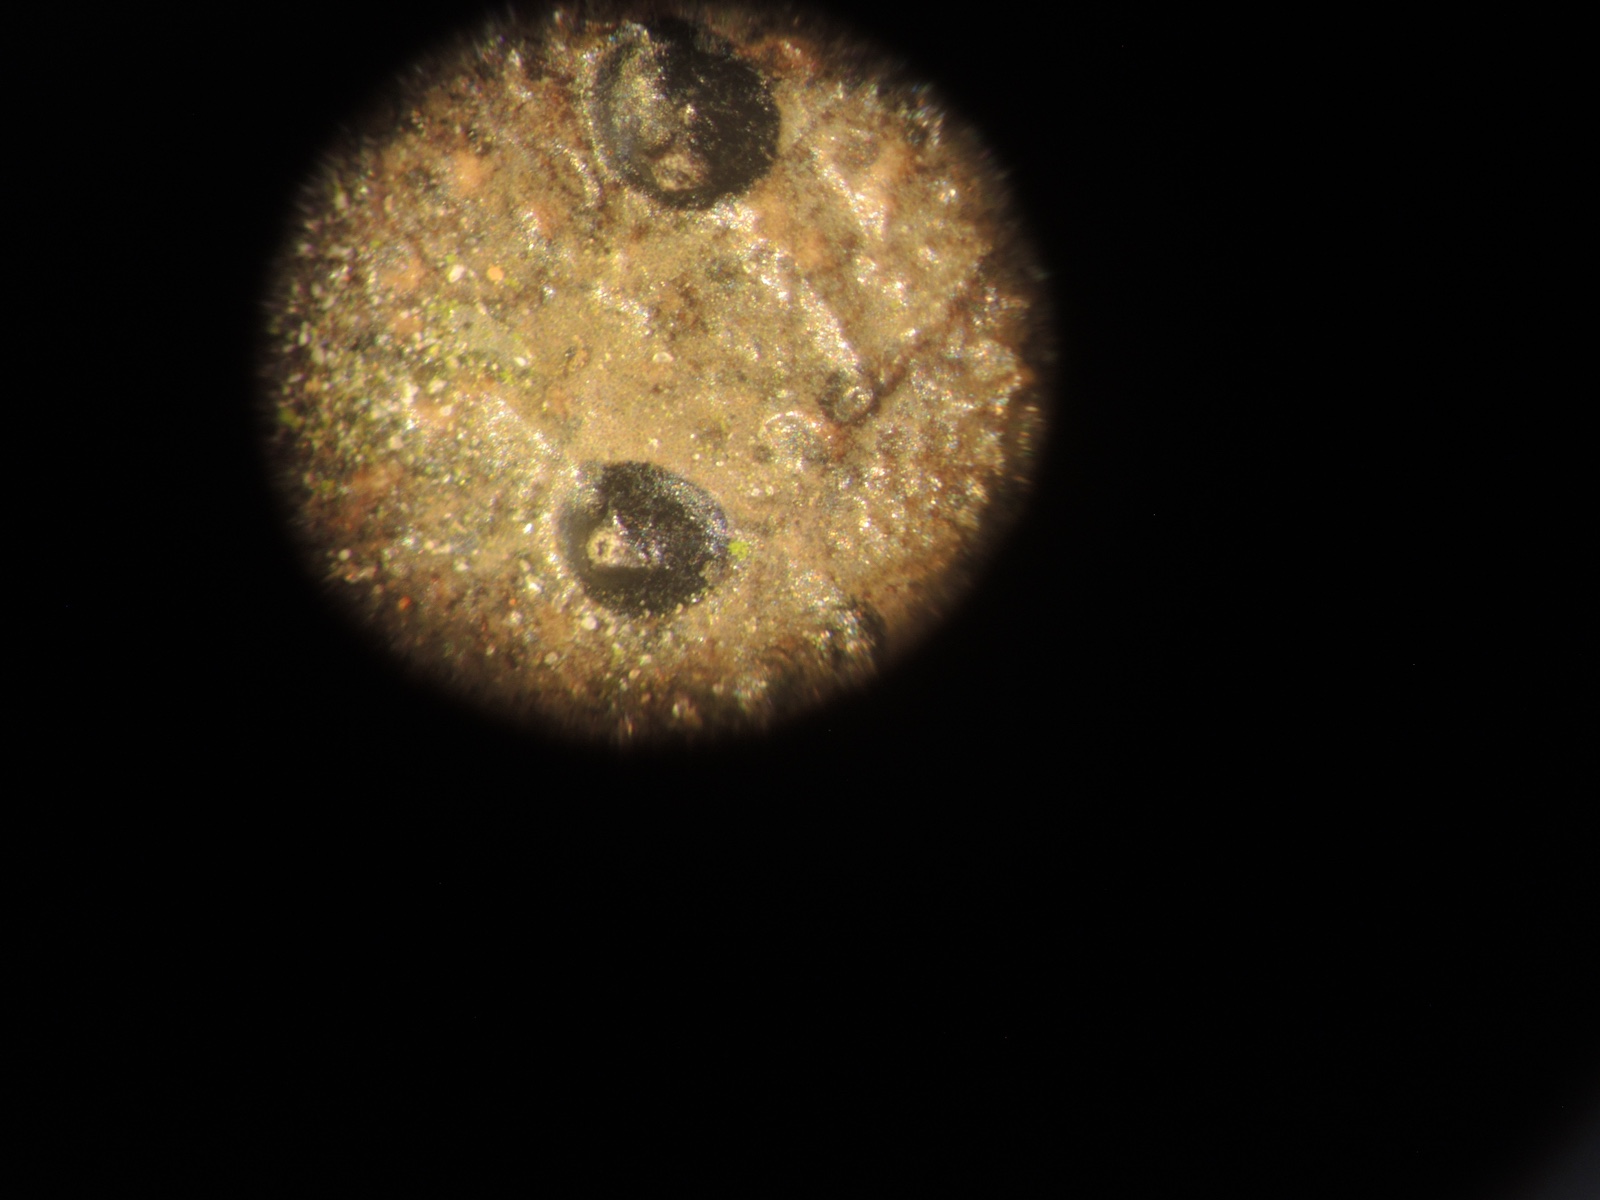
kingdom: Fungi
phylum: Ascomycota
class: Leotiomycetes
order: Phacidiales
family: Phacidiaceae
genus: Phacidium
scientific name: Phacidium lauri
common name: kristtorn-tandskive
